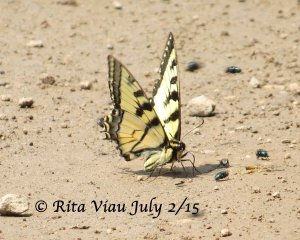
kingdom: Animalia
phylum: Arthropoda
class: Insecta
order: Lepidoptera
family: Papilionidae
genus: Pterourus
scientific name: Pterourus canadensis
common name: Canadian Tiger Swallowtail
